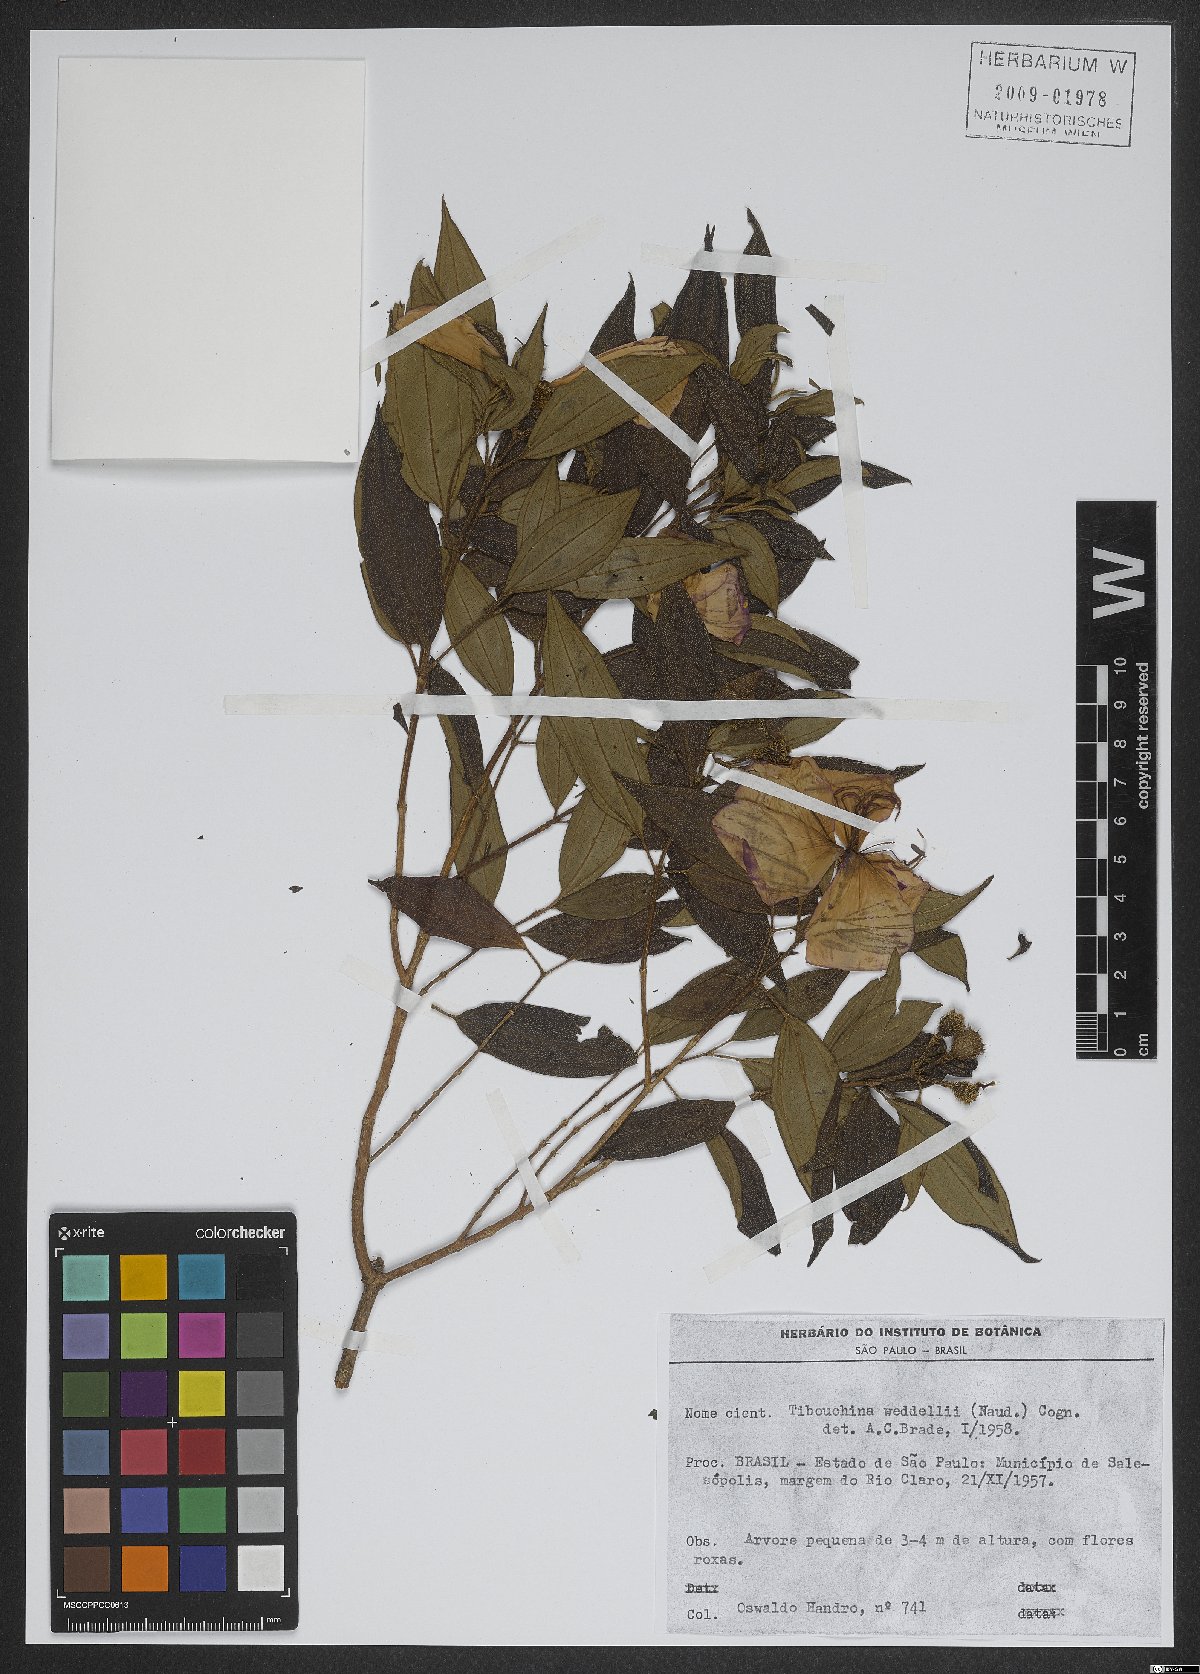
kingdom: Plantae
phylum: Tracheophyta
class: Magnoliopsida
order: Myrtales
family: Melastomataceae
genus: Pleroma
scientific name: Pleroma elegans
